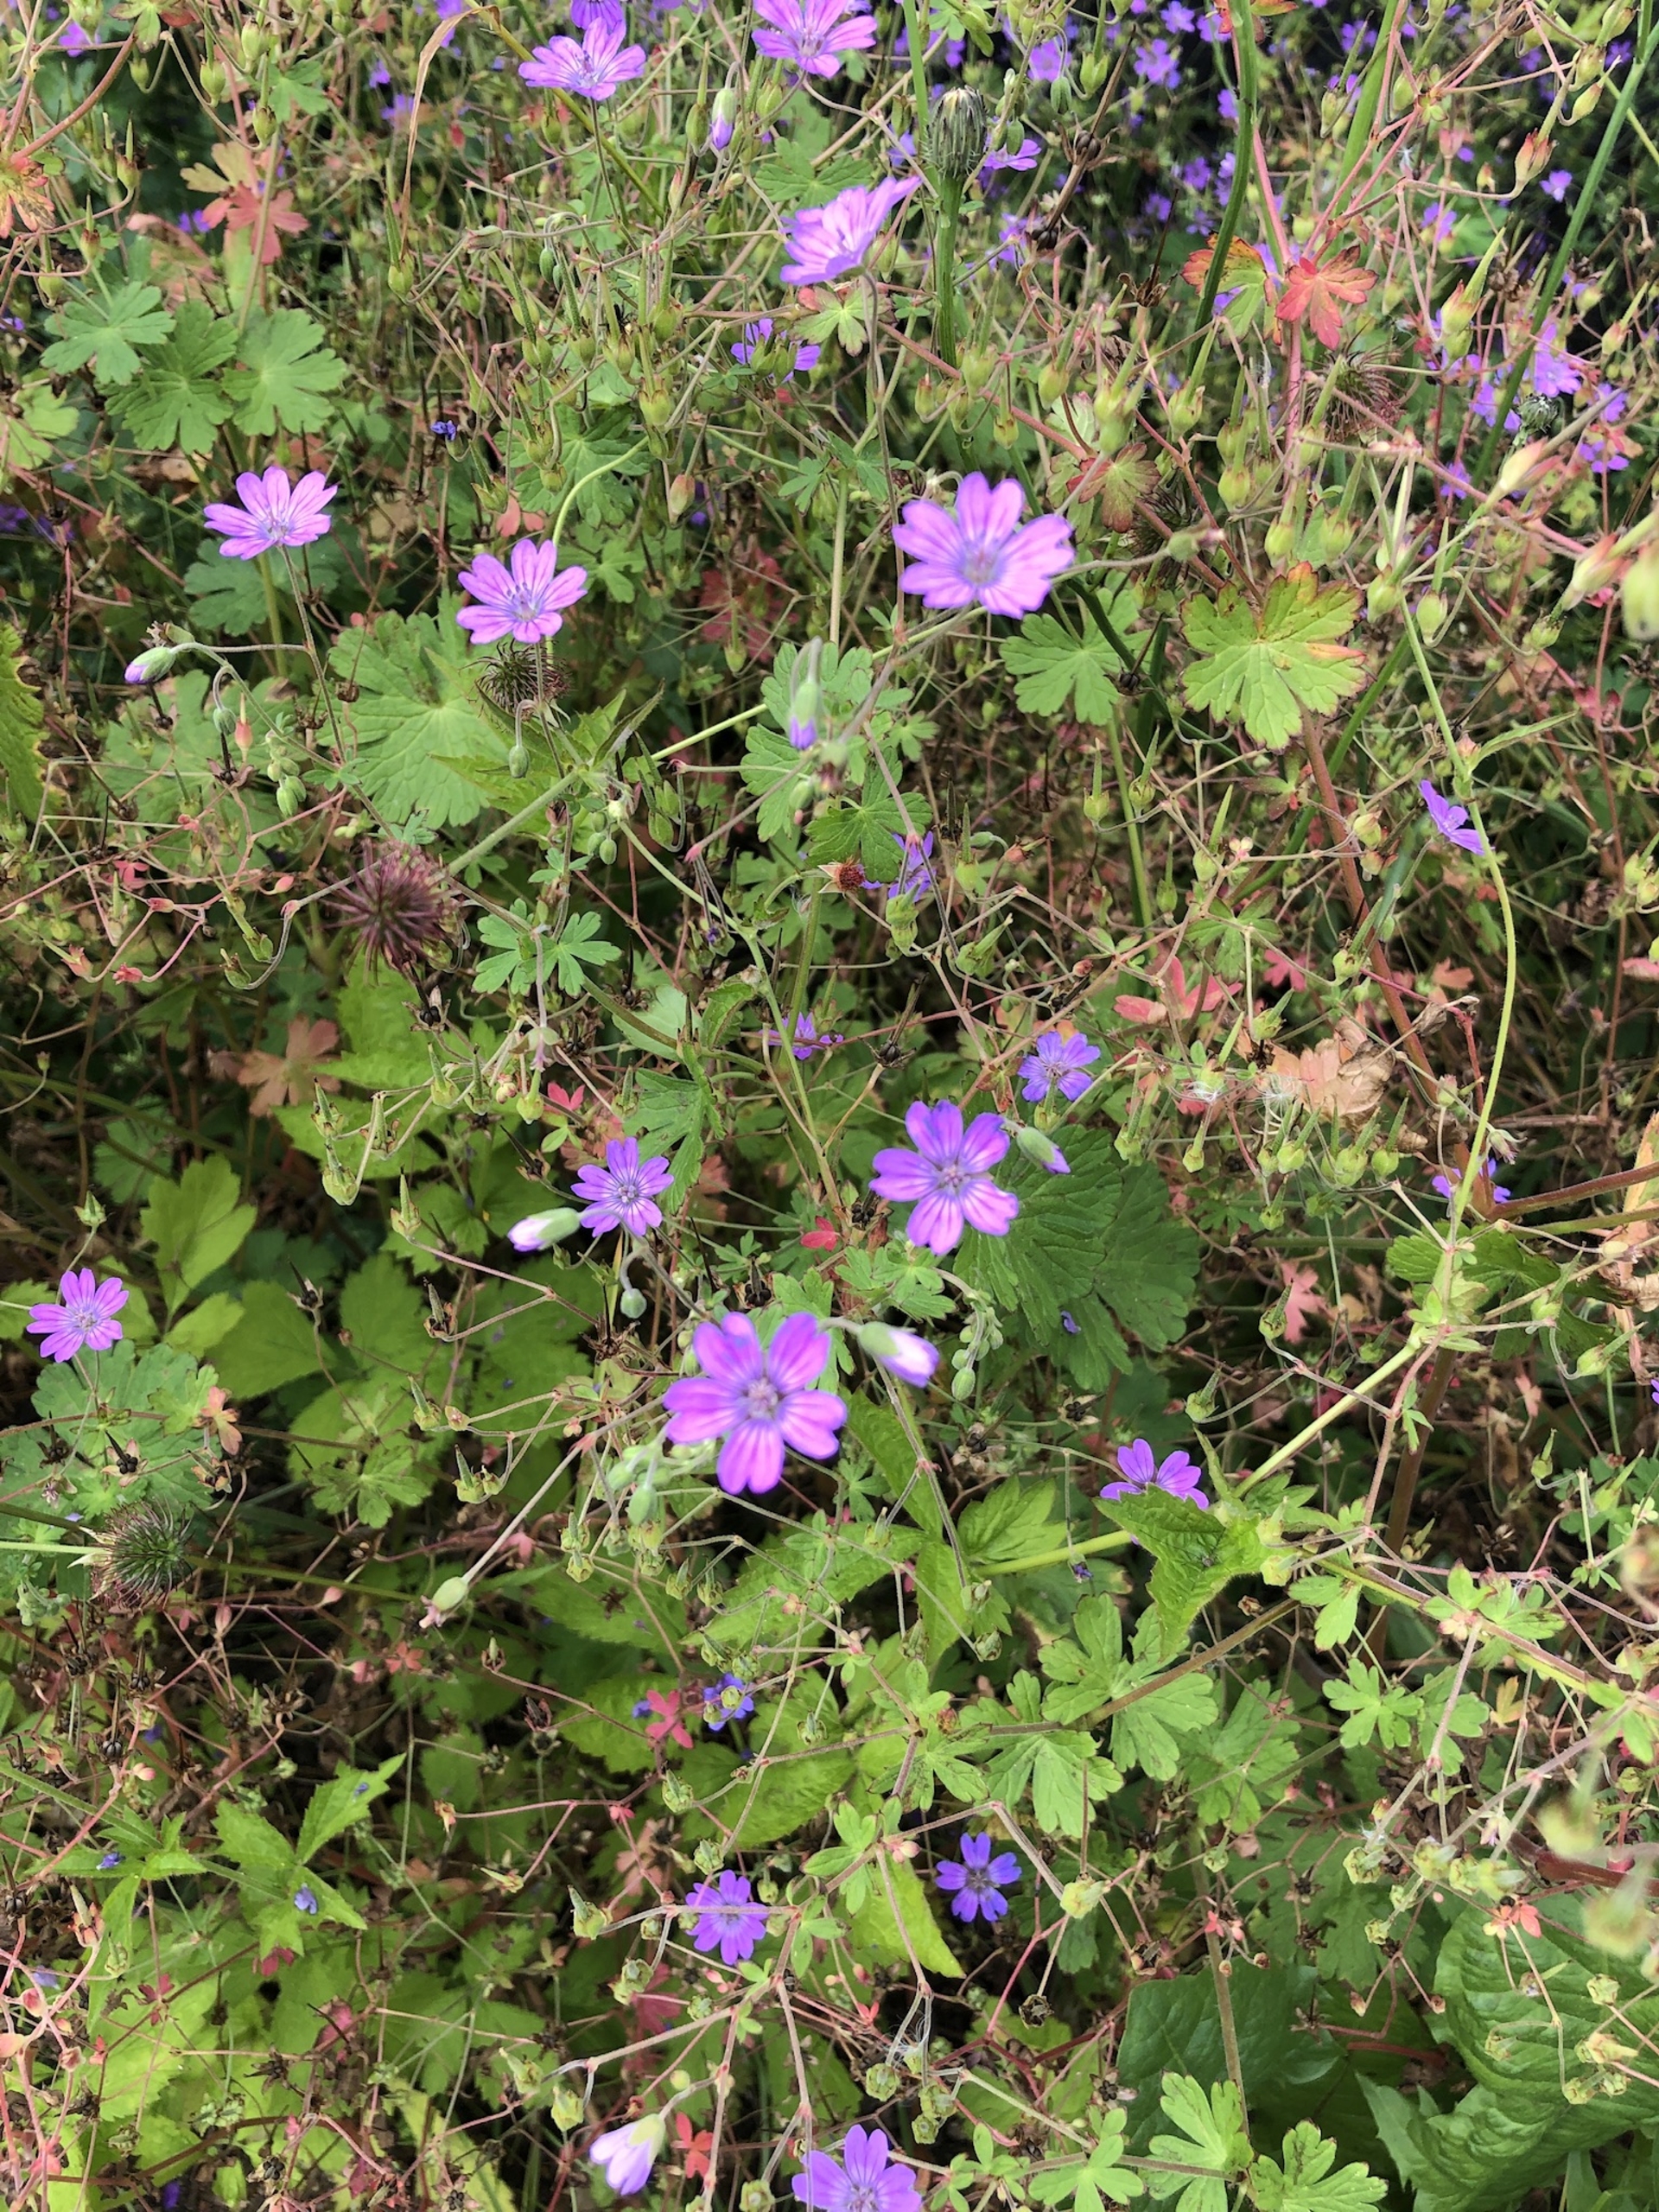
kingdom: Plantae
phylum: Tracheophyta
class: Magnoliopsida
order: Geraniales
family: Geraniaceae
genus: Geranium
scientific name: Geranium pyrenaicum
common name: Pyrenæisk storkenæb
